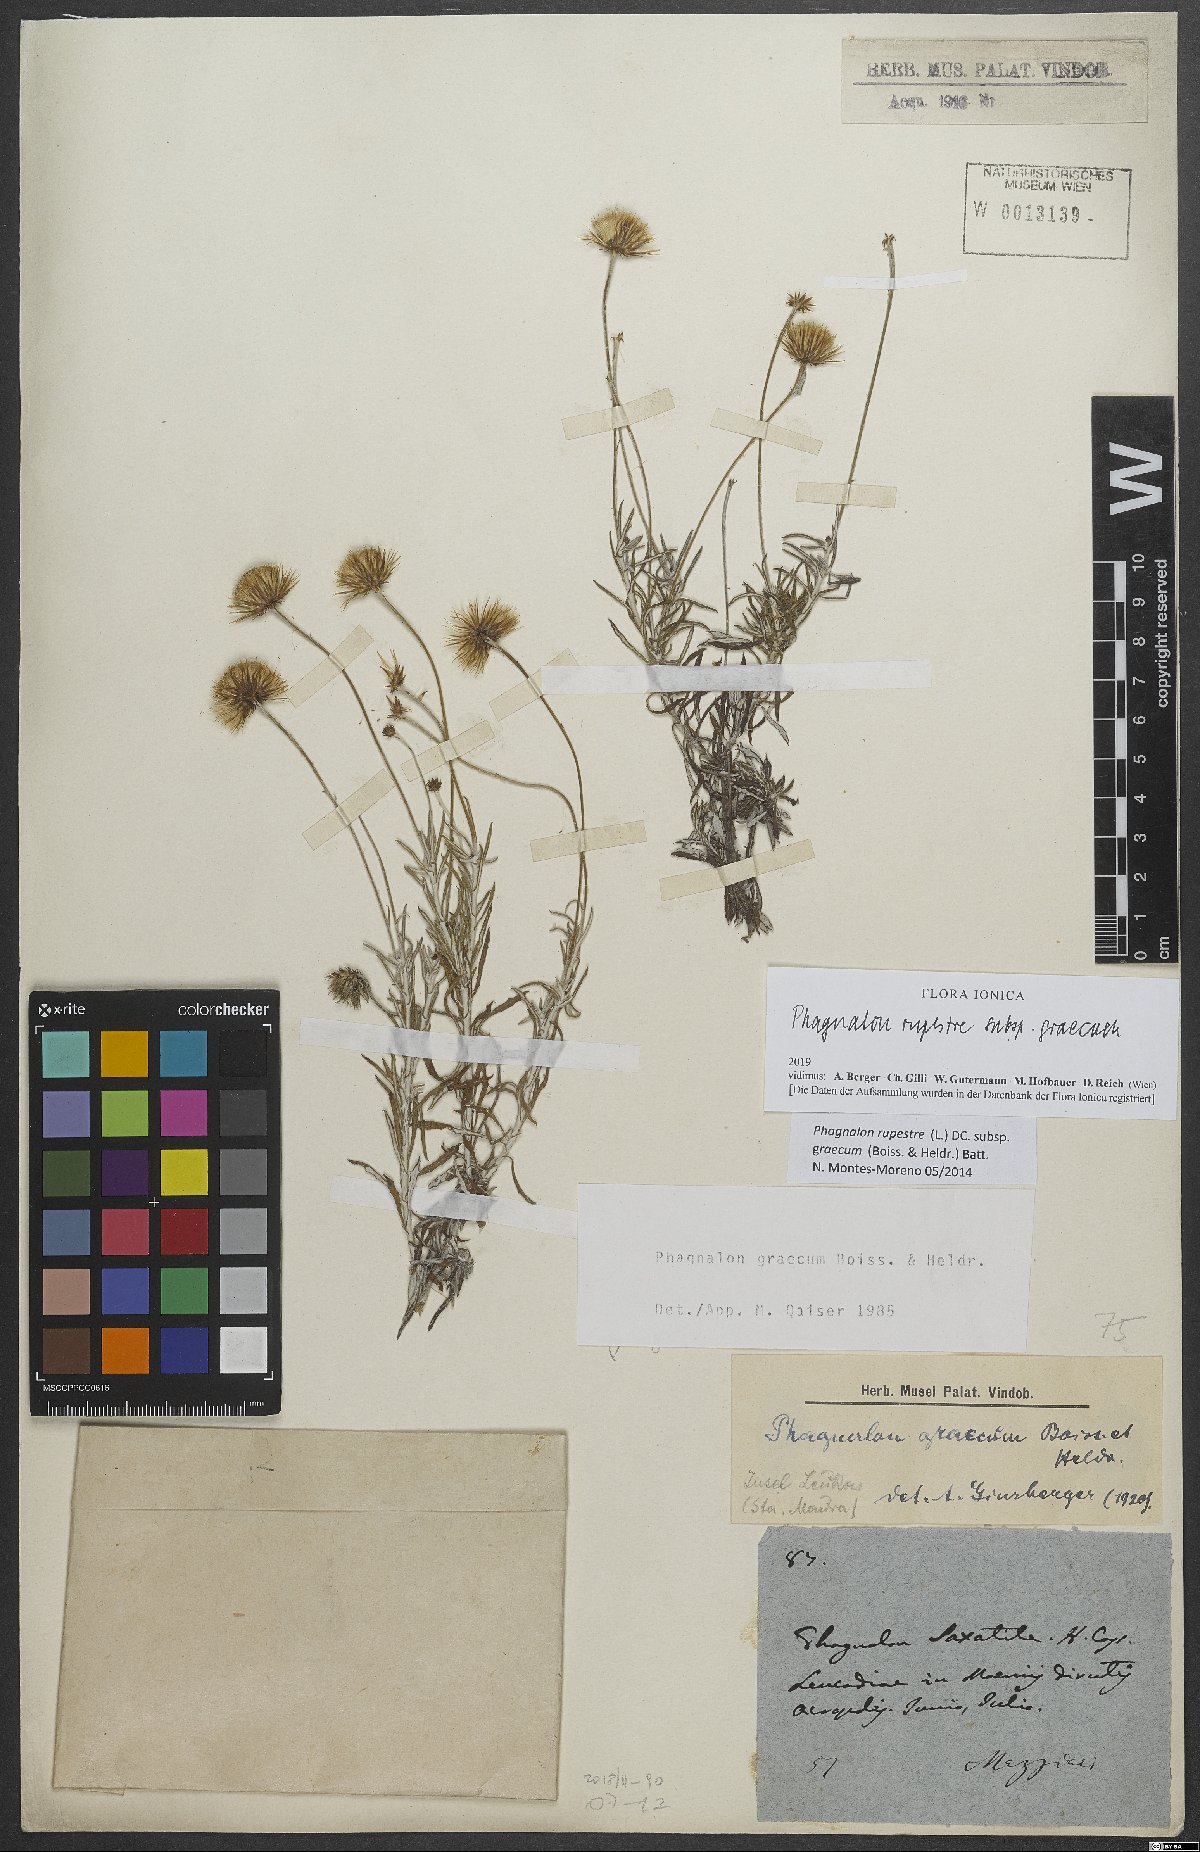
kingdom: Plantae
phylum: Tracheophyta
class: Magnoliopsida
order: Asterales
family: Asteraceae
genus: Phagnalon
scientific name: Phagnalon graecum
